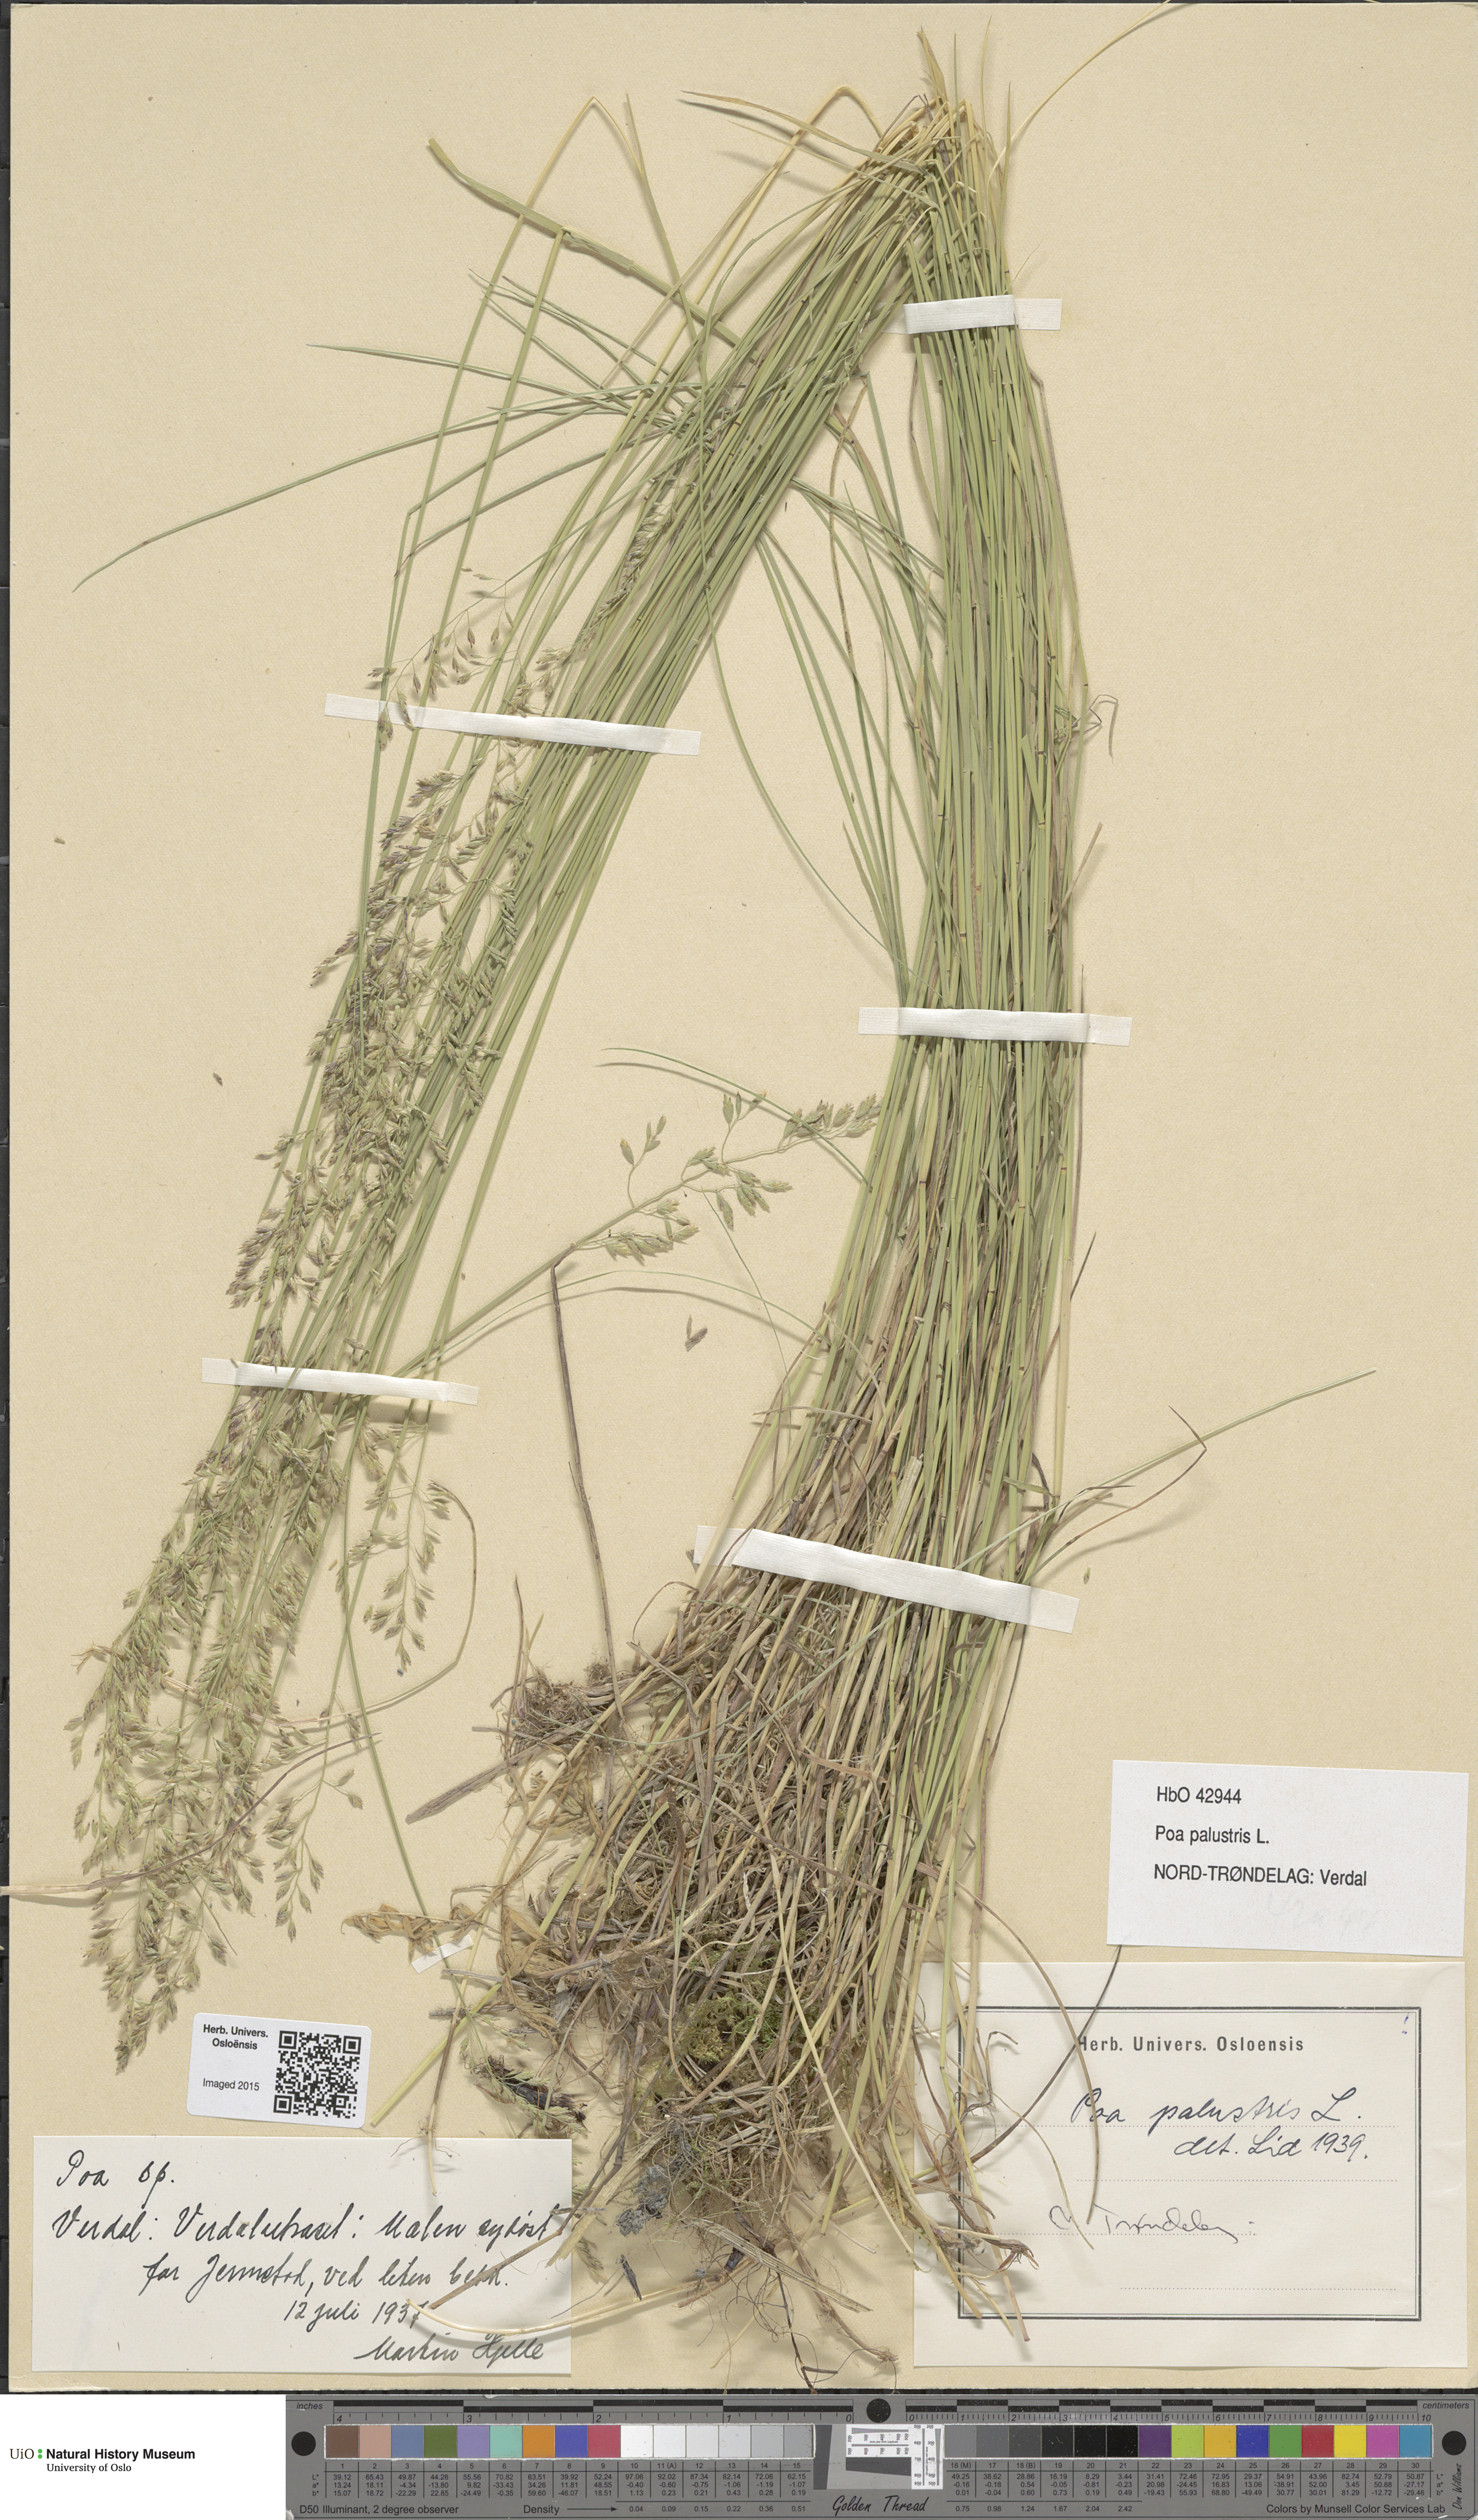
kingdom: Plantae
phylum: Tracheophyta
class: Liliopsida
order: Poales
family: Poaceae
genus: Poa
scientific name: Poa palustris
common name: Swamp meadow-grass
